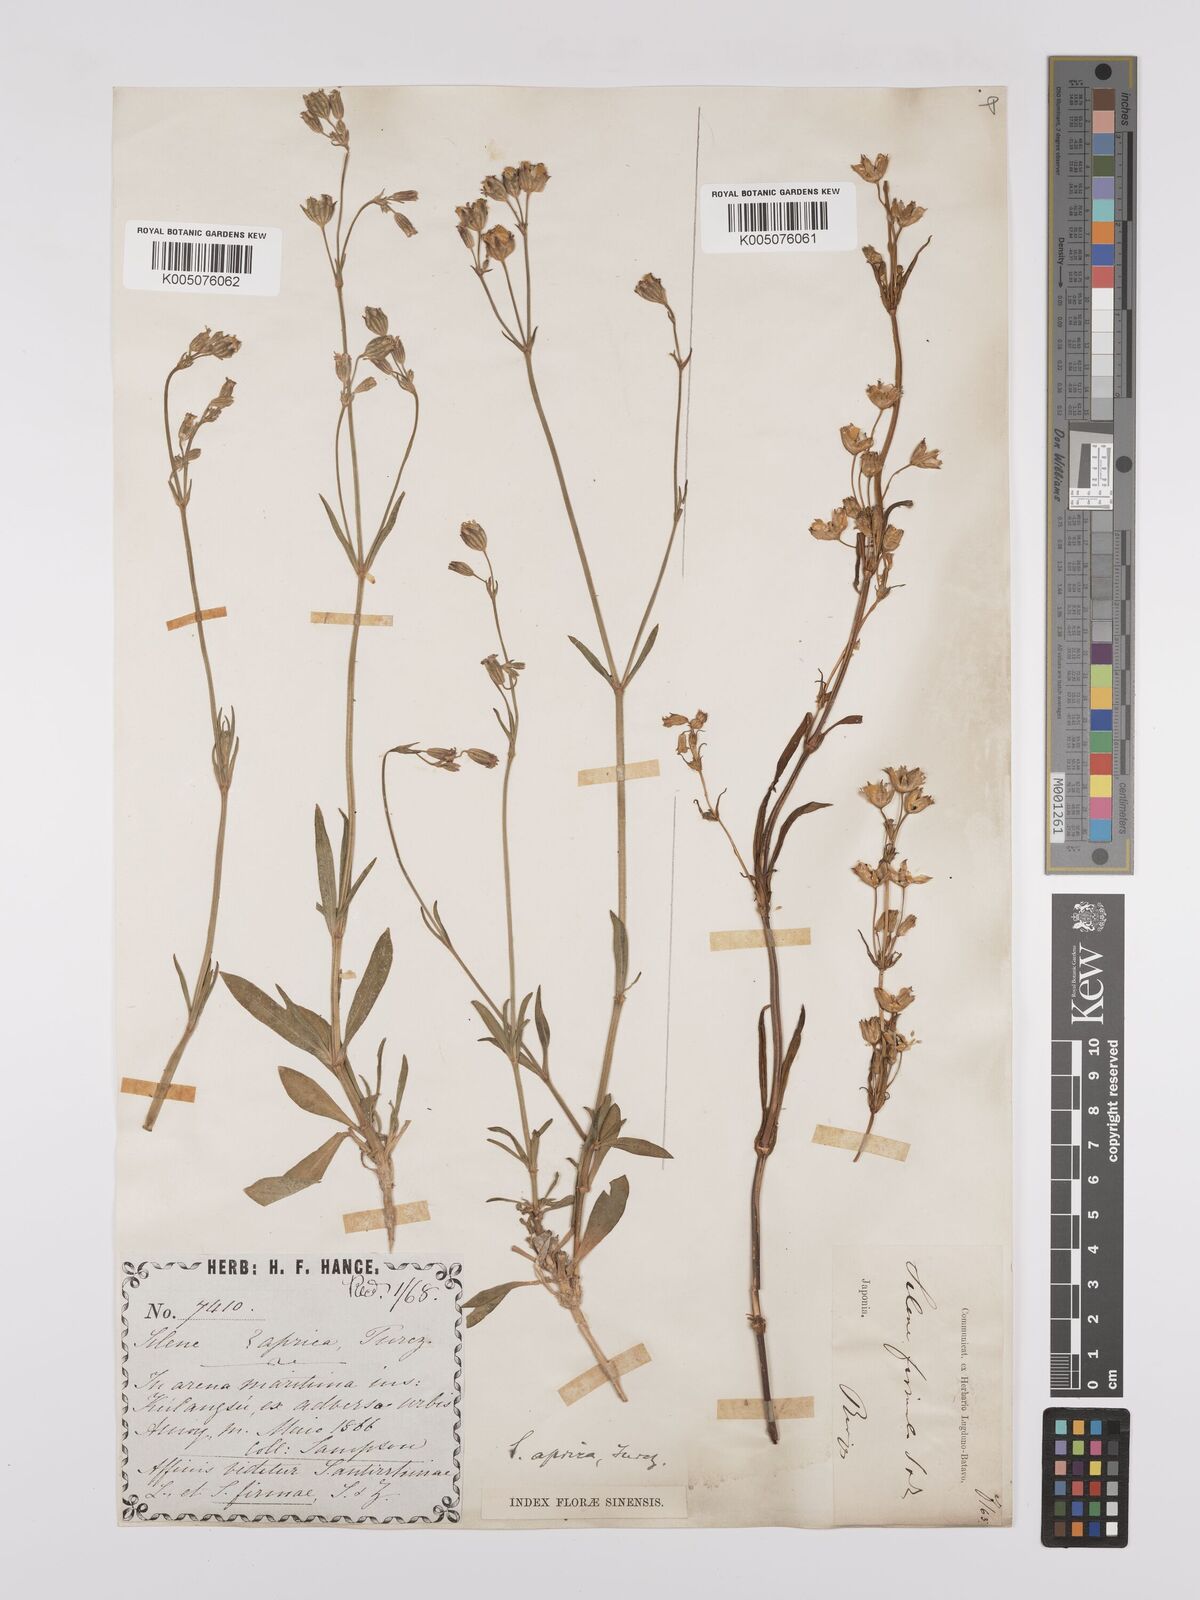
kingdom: Plantae
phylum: Tracheophyta
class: Magnoliopsida
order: Caryophyllales
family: Caryophyllaceae
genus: Silene
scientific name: Silene aprica
